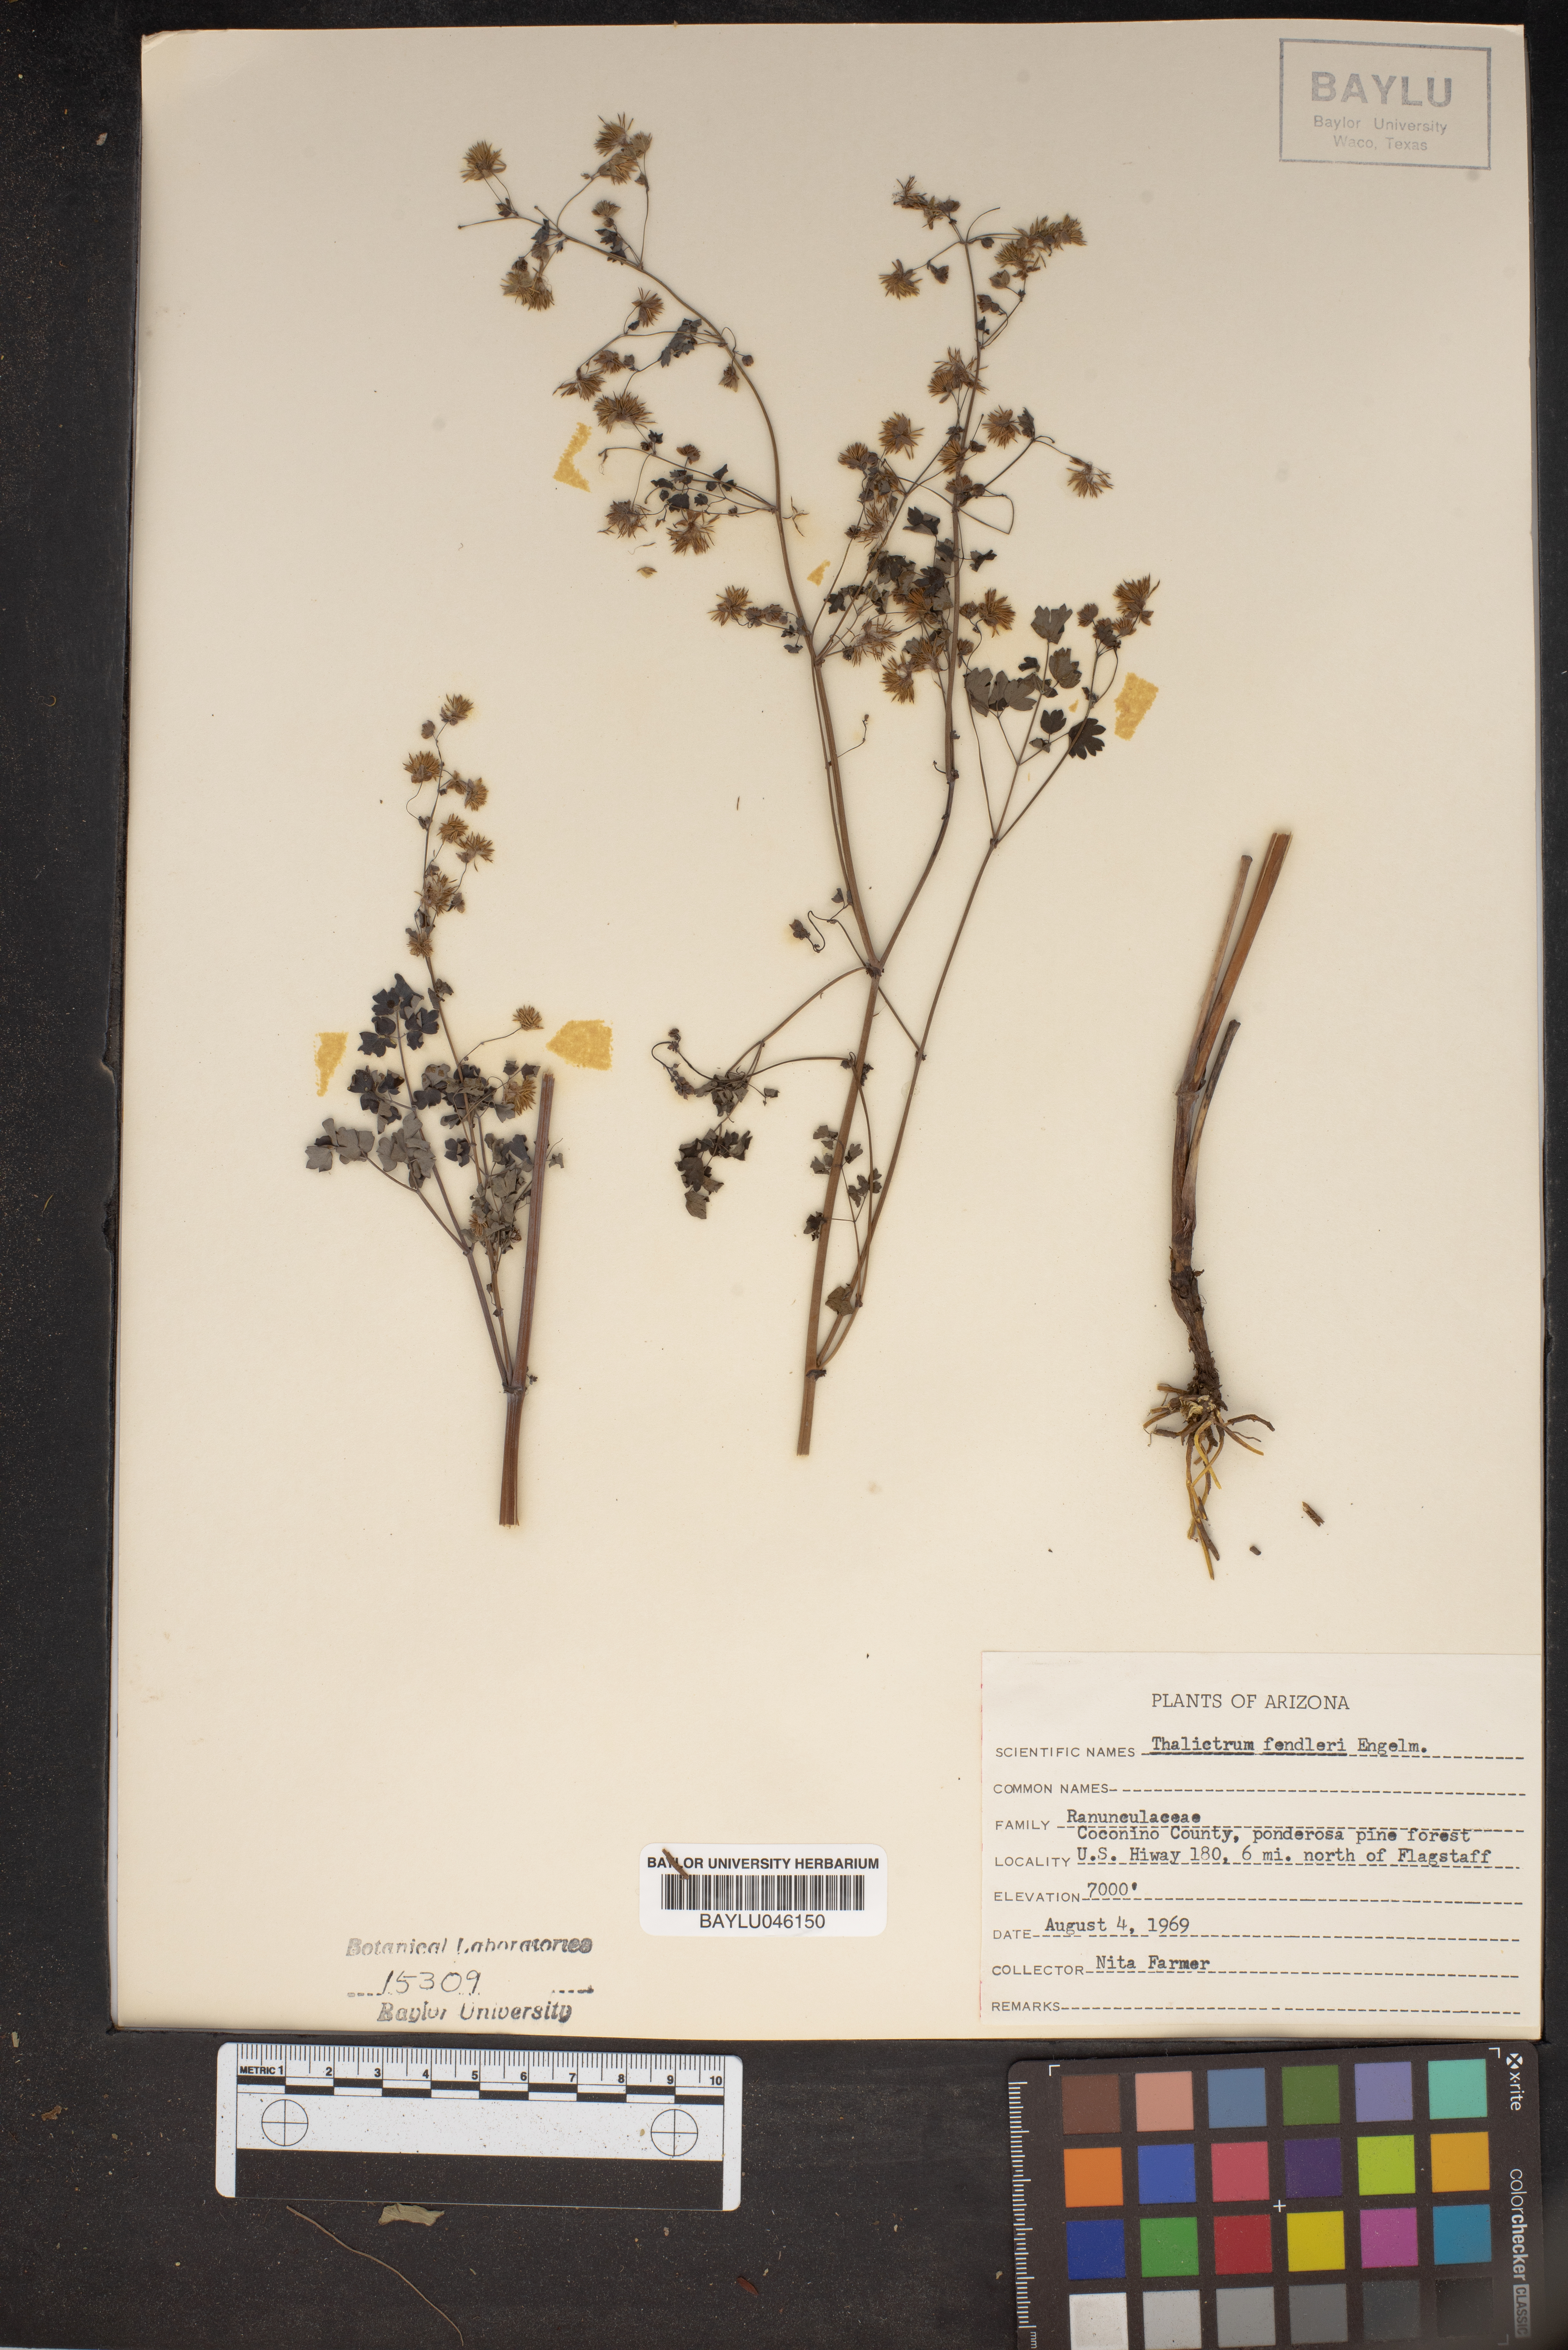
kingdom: Plantae
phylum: Tracheophyta
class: Magnoliopsida
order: Ranunculales
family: Ranunculaceae
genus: Thalictrum
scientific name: Thalictrum fendleri
